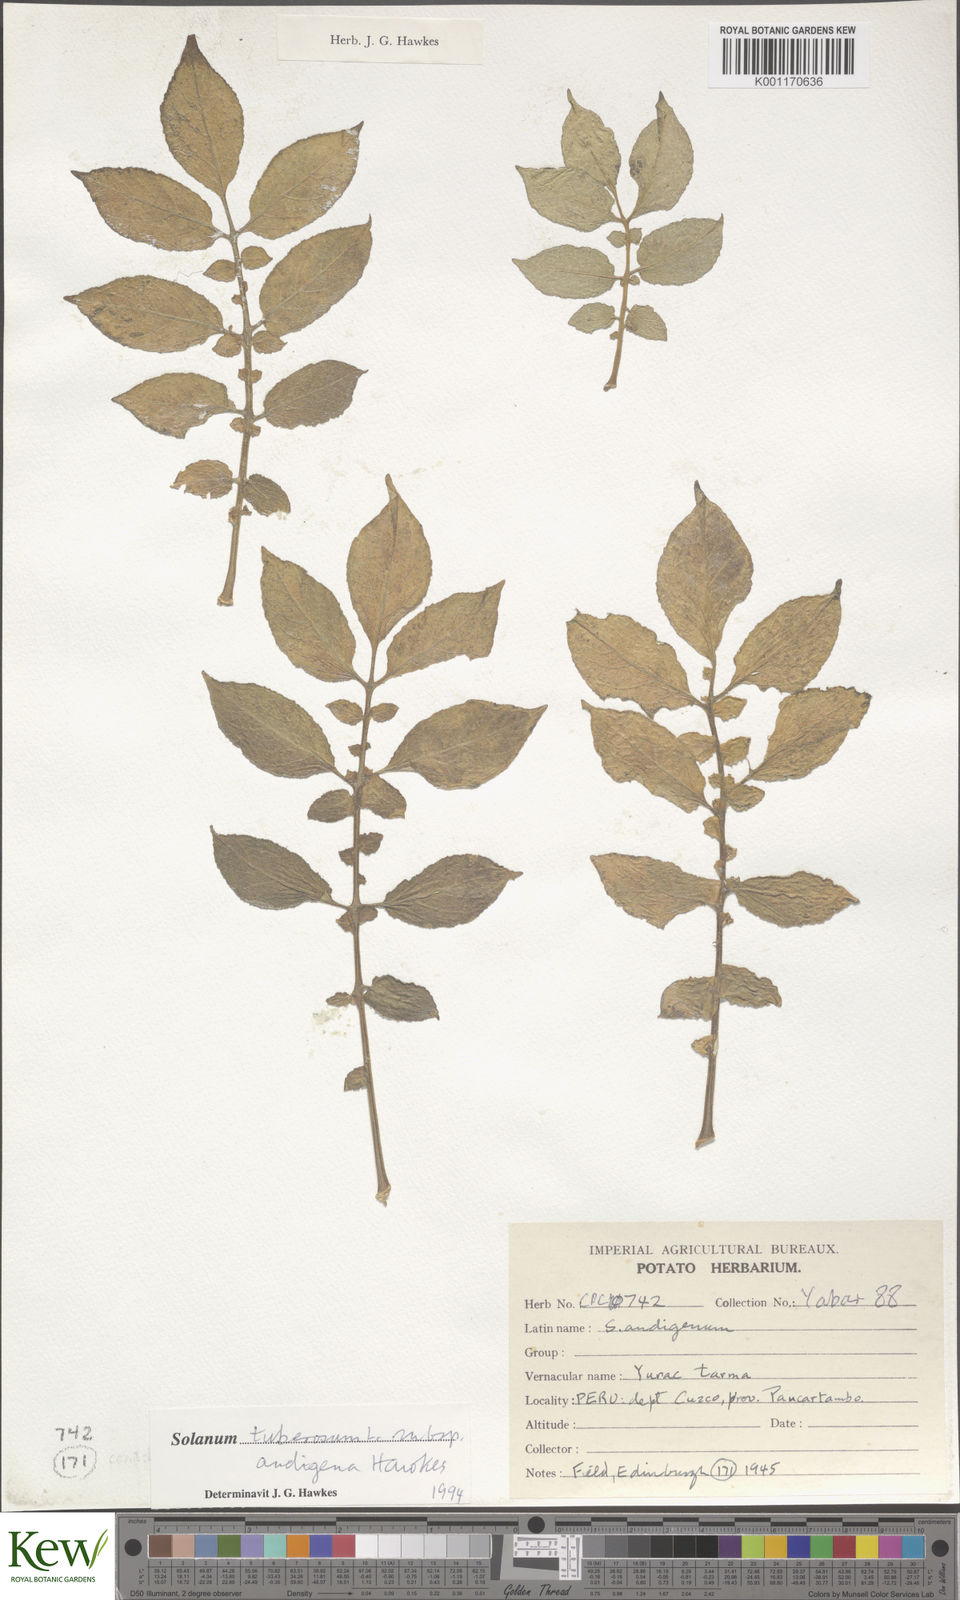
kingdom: Plantae
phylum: Tracheophyta
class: Magnoliopsida
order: Solanales
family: Solanaceae
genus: Solanum
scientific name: Solanum tuberosum
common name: Potato
